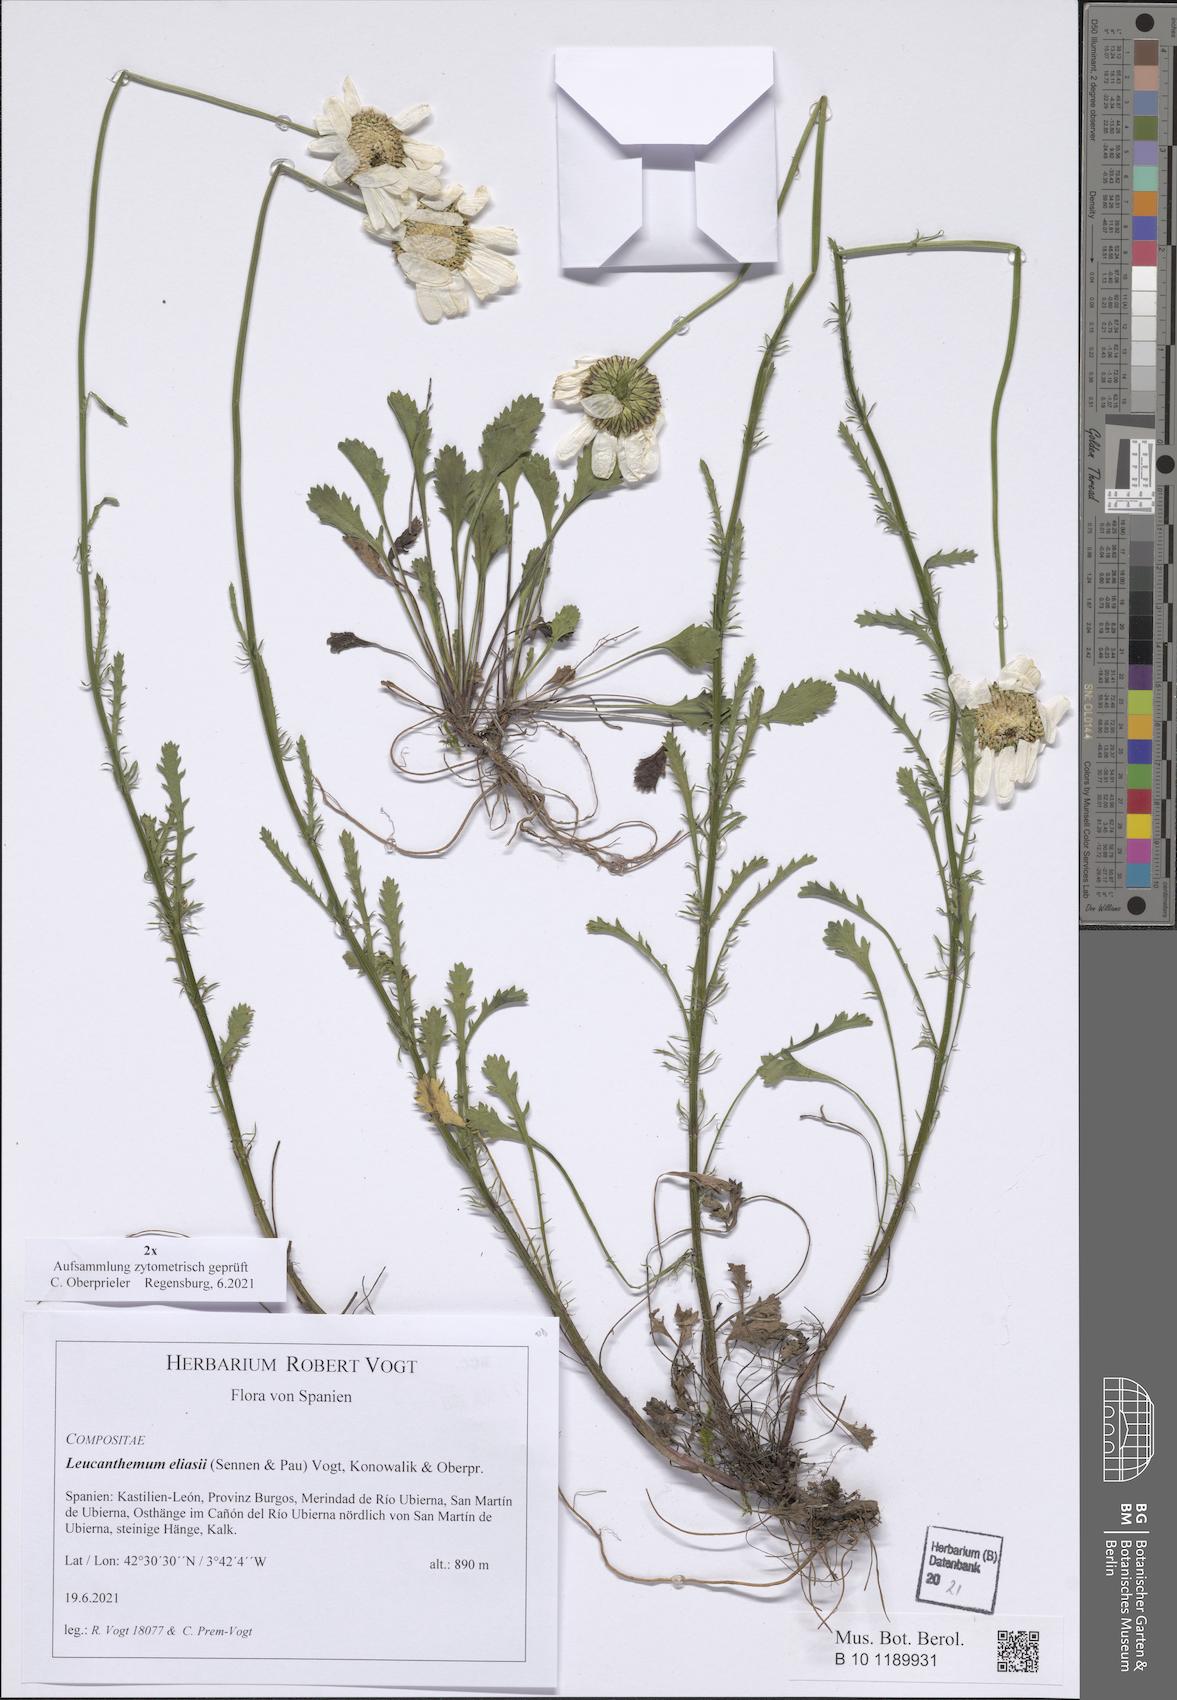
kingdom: Plantae
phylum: Tracheophyta
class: Magnoliopsida
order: Asterales
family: Asteraceae
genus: Leucanthemum
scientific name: Leucanthemum eliasii
